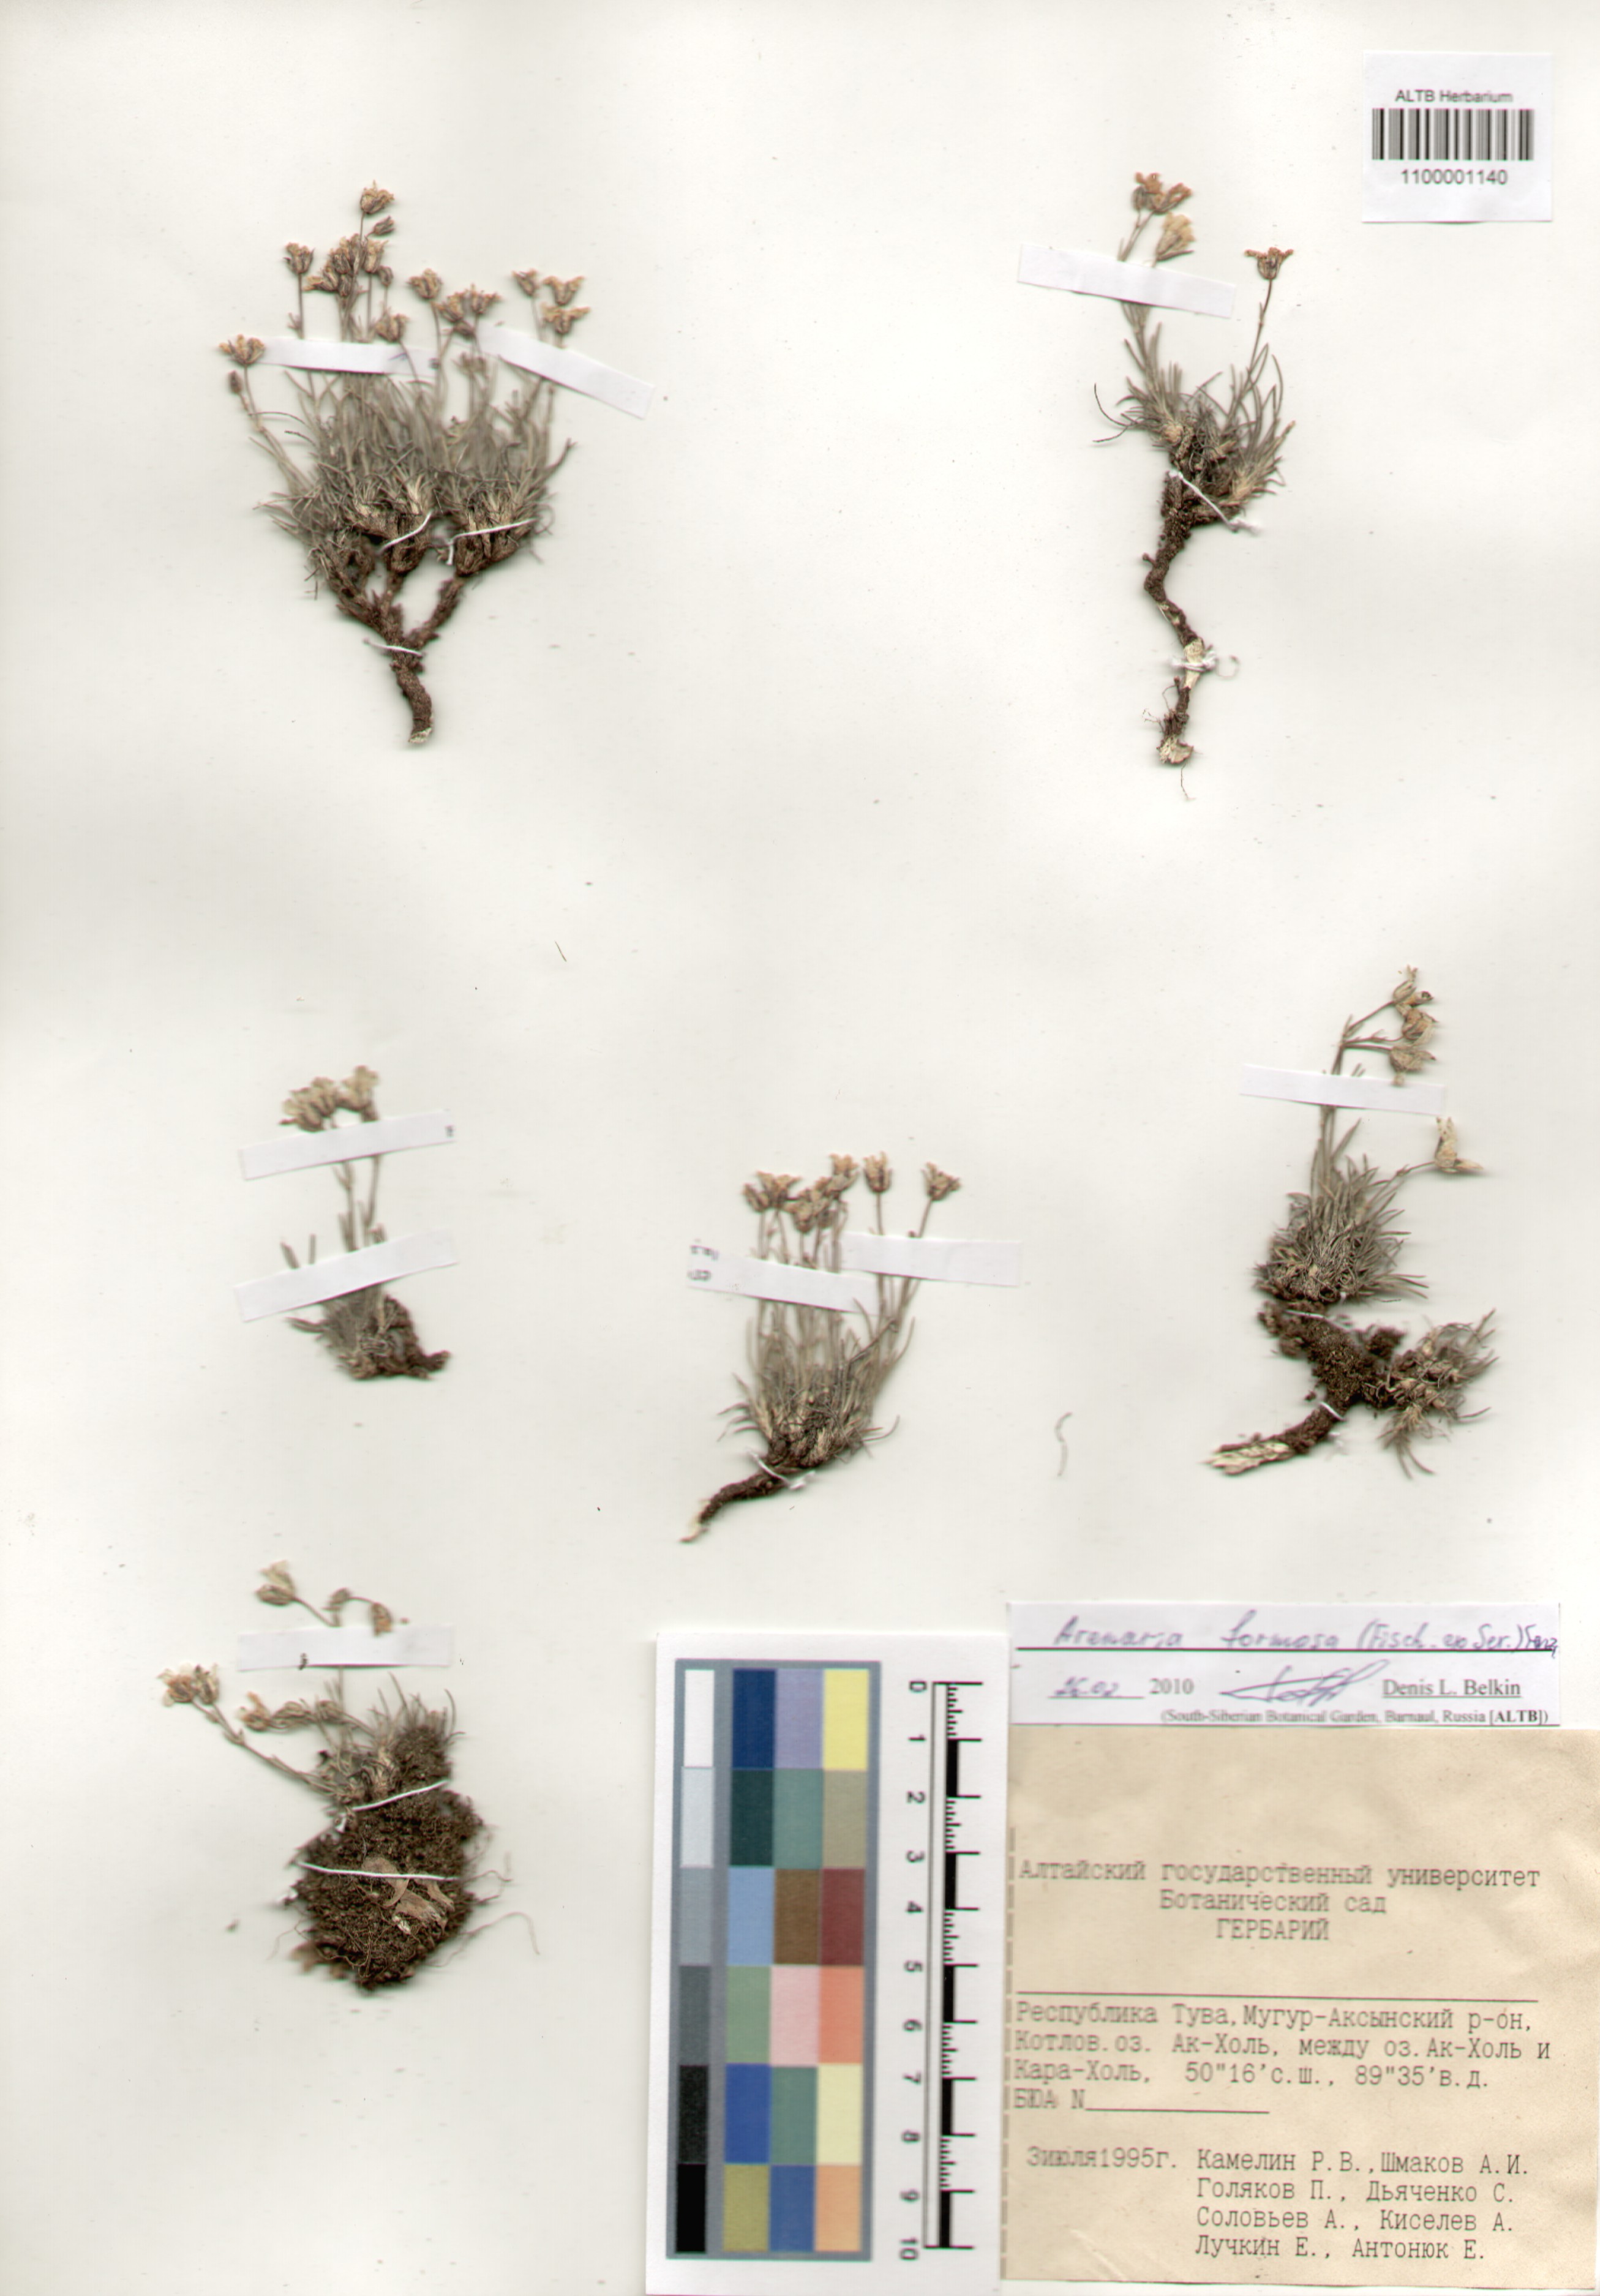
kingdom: Plantae
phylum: Tracheophyta
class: Magnoliopsida
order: Caryophyllales
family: Caryophyllaceae
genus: Eremogone
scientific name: Eremogone formosa
